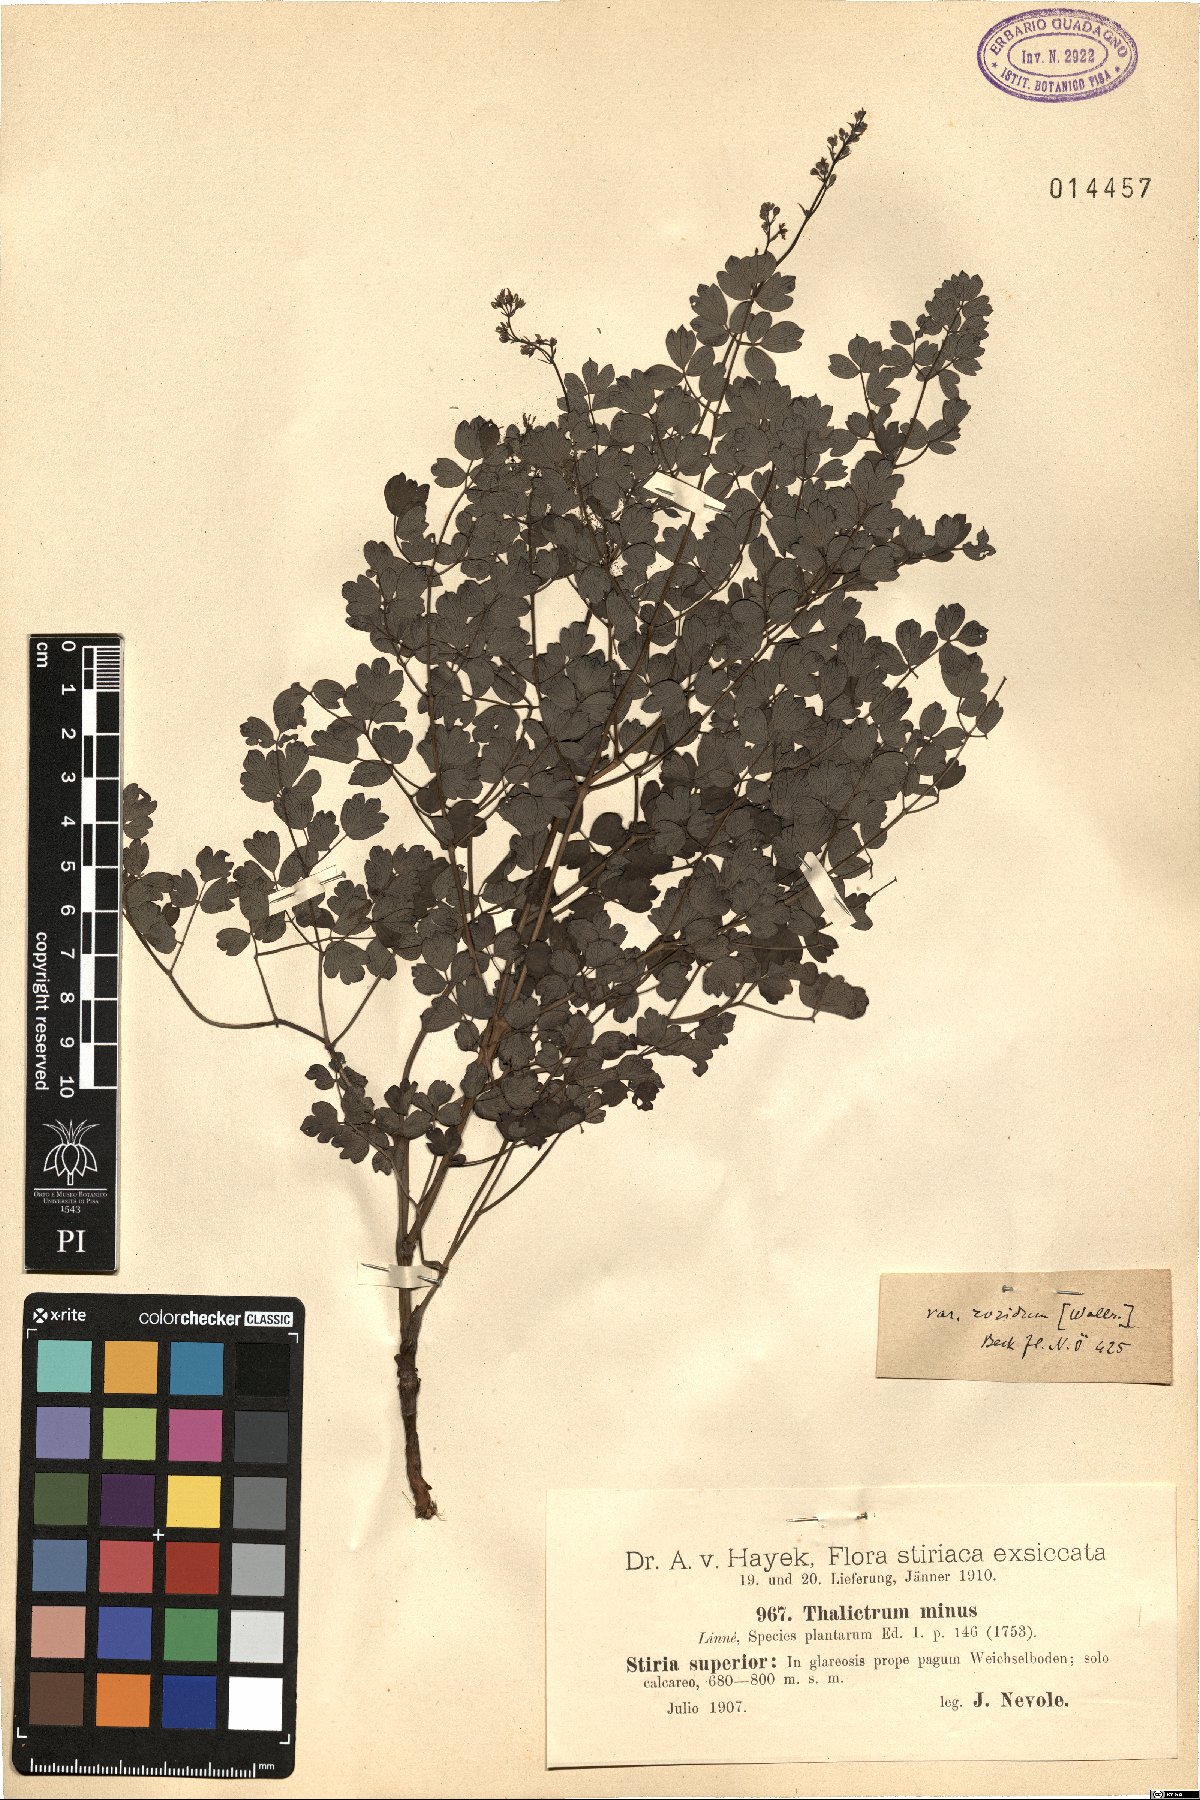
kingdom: Plantae
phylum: Tracheophyta
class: Magnoliopsida
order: Ranunculales
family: Ranunculaceae
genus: Thalictrum
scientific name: Thalictrum minus
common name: Lesser meadow-rue
